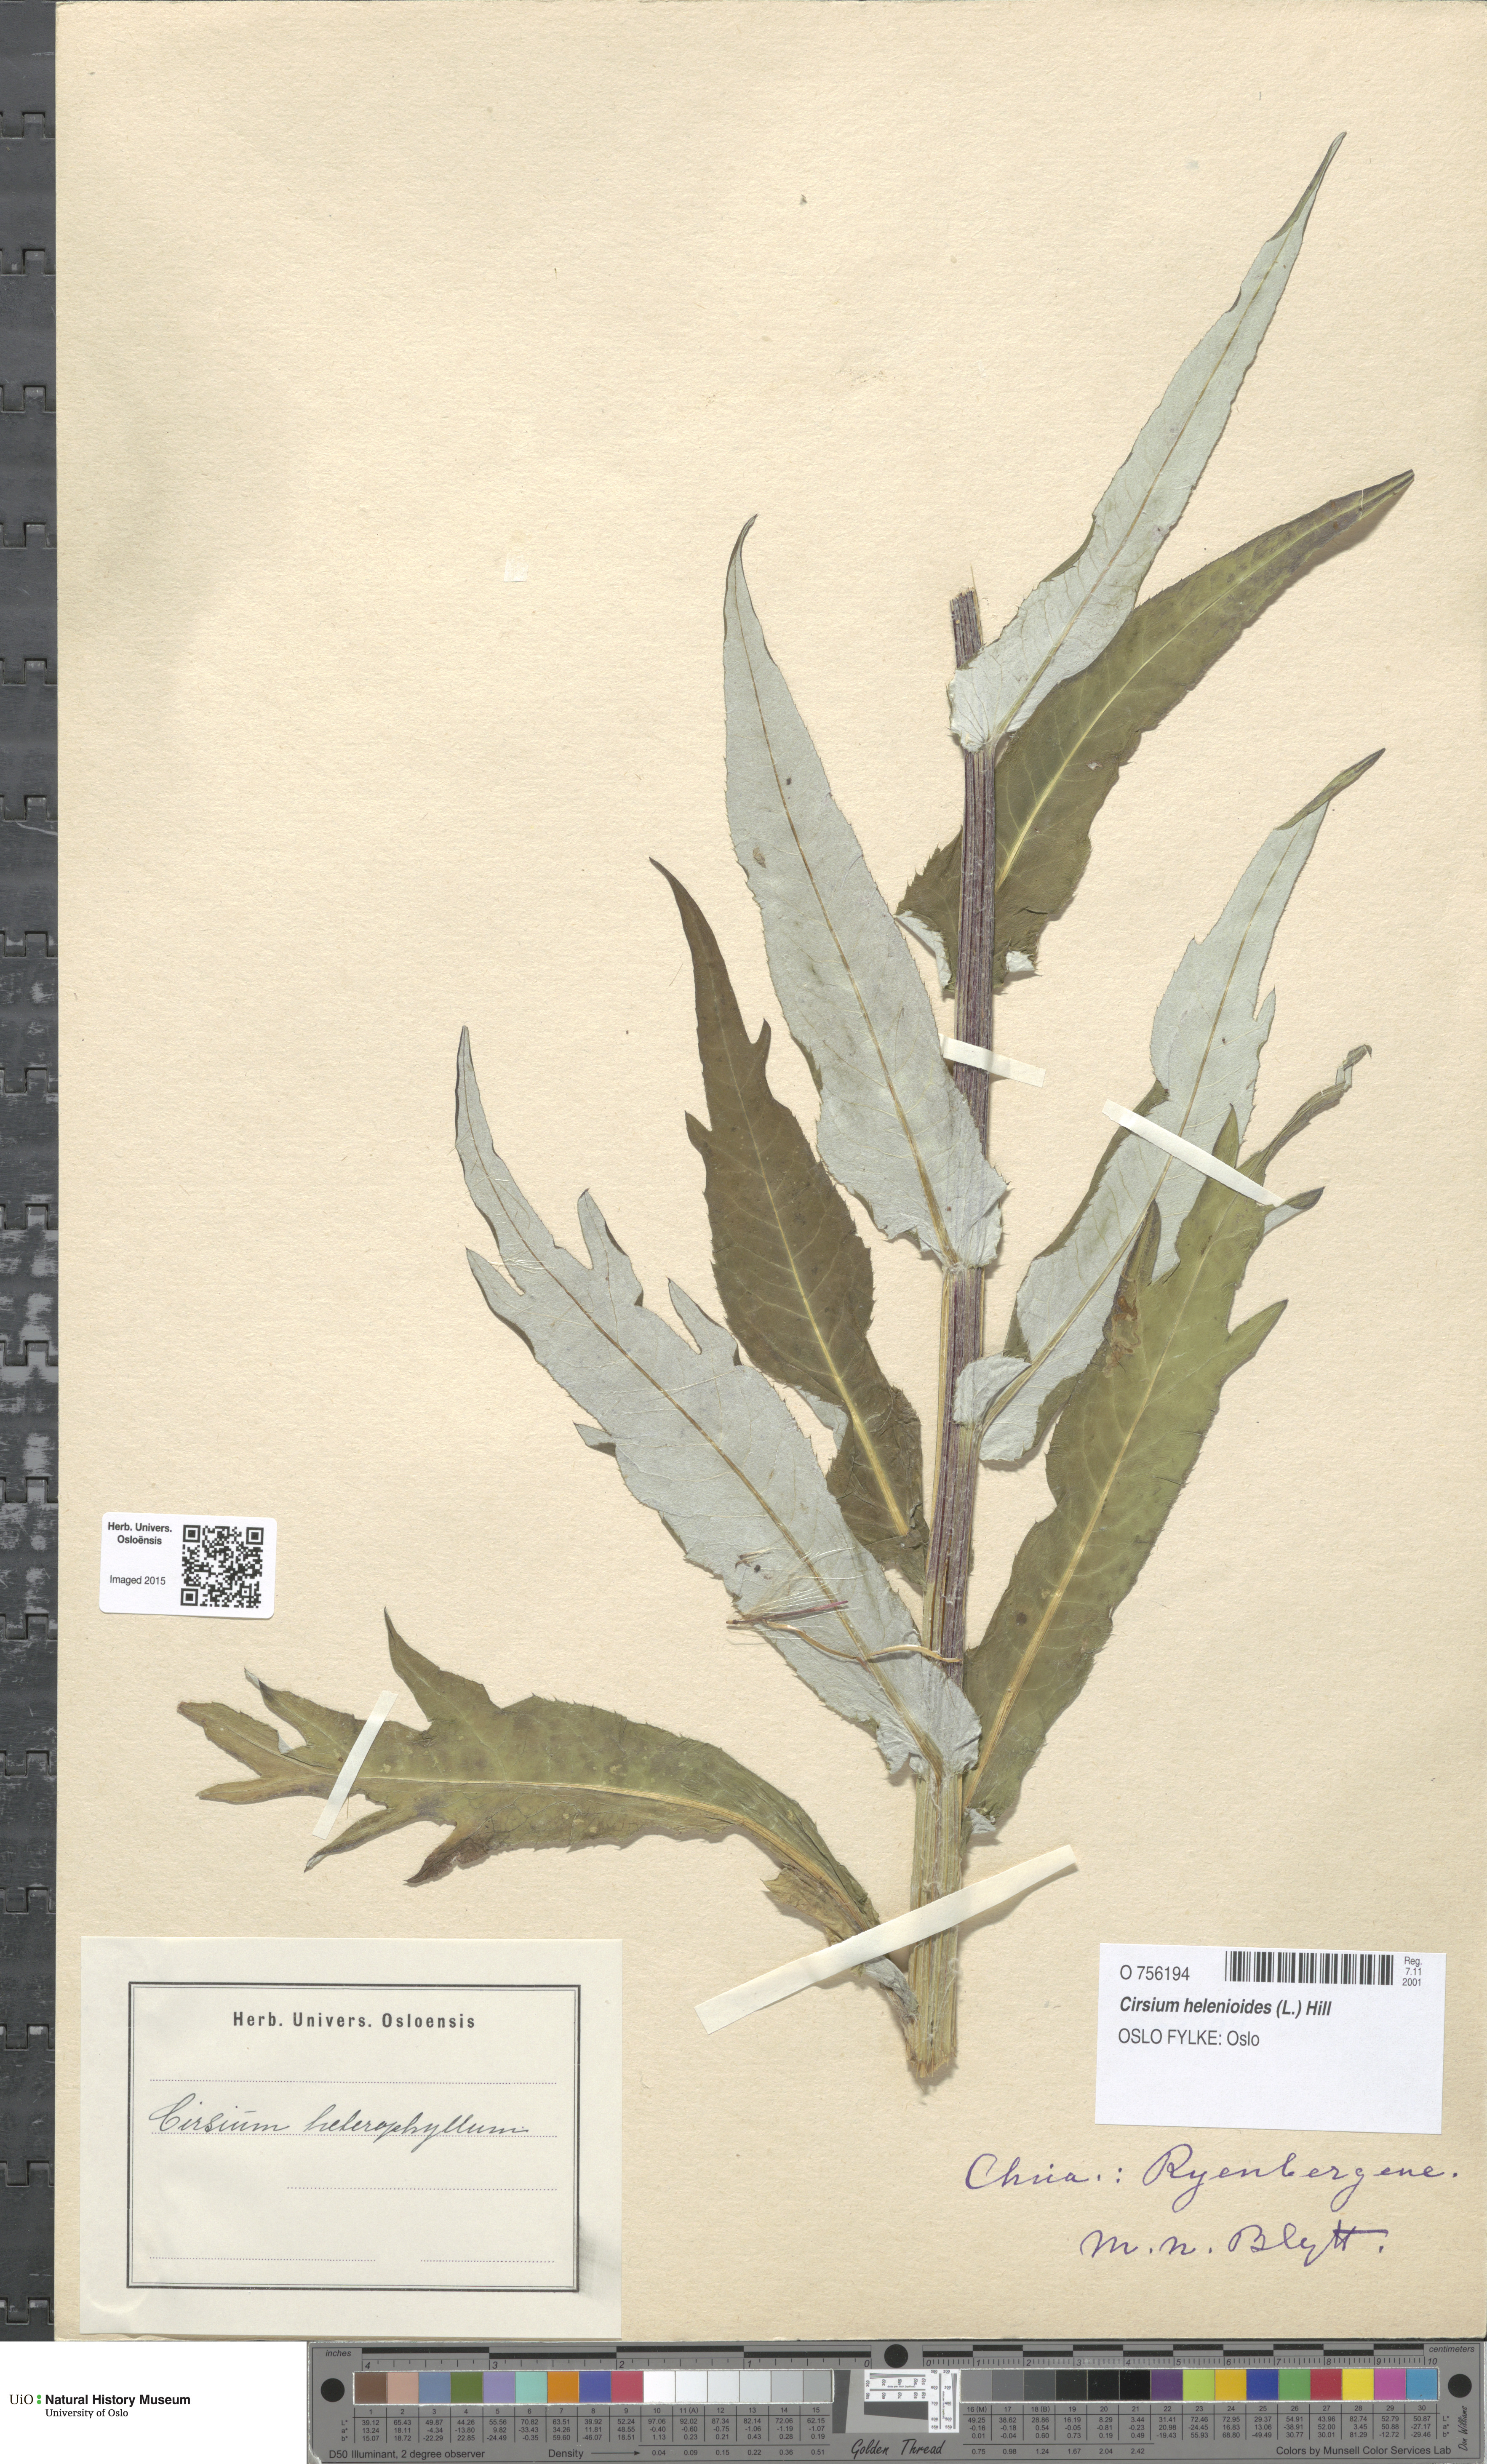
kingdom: Plantae
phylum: Tracheophyta
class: Magnoliopsida
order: Asterales
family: Asteraceae
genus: Cirsium
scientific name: Cirsium heterophyllum
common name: Melancholy thistle
